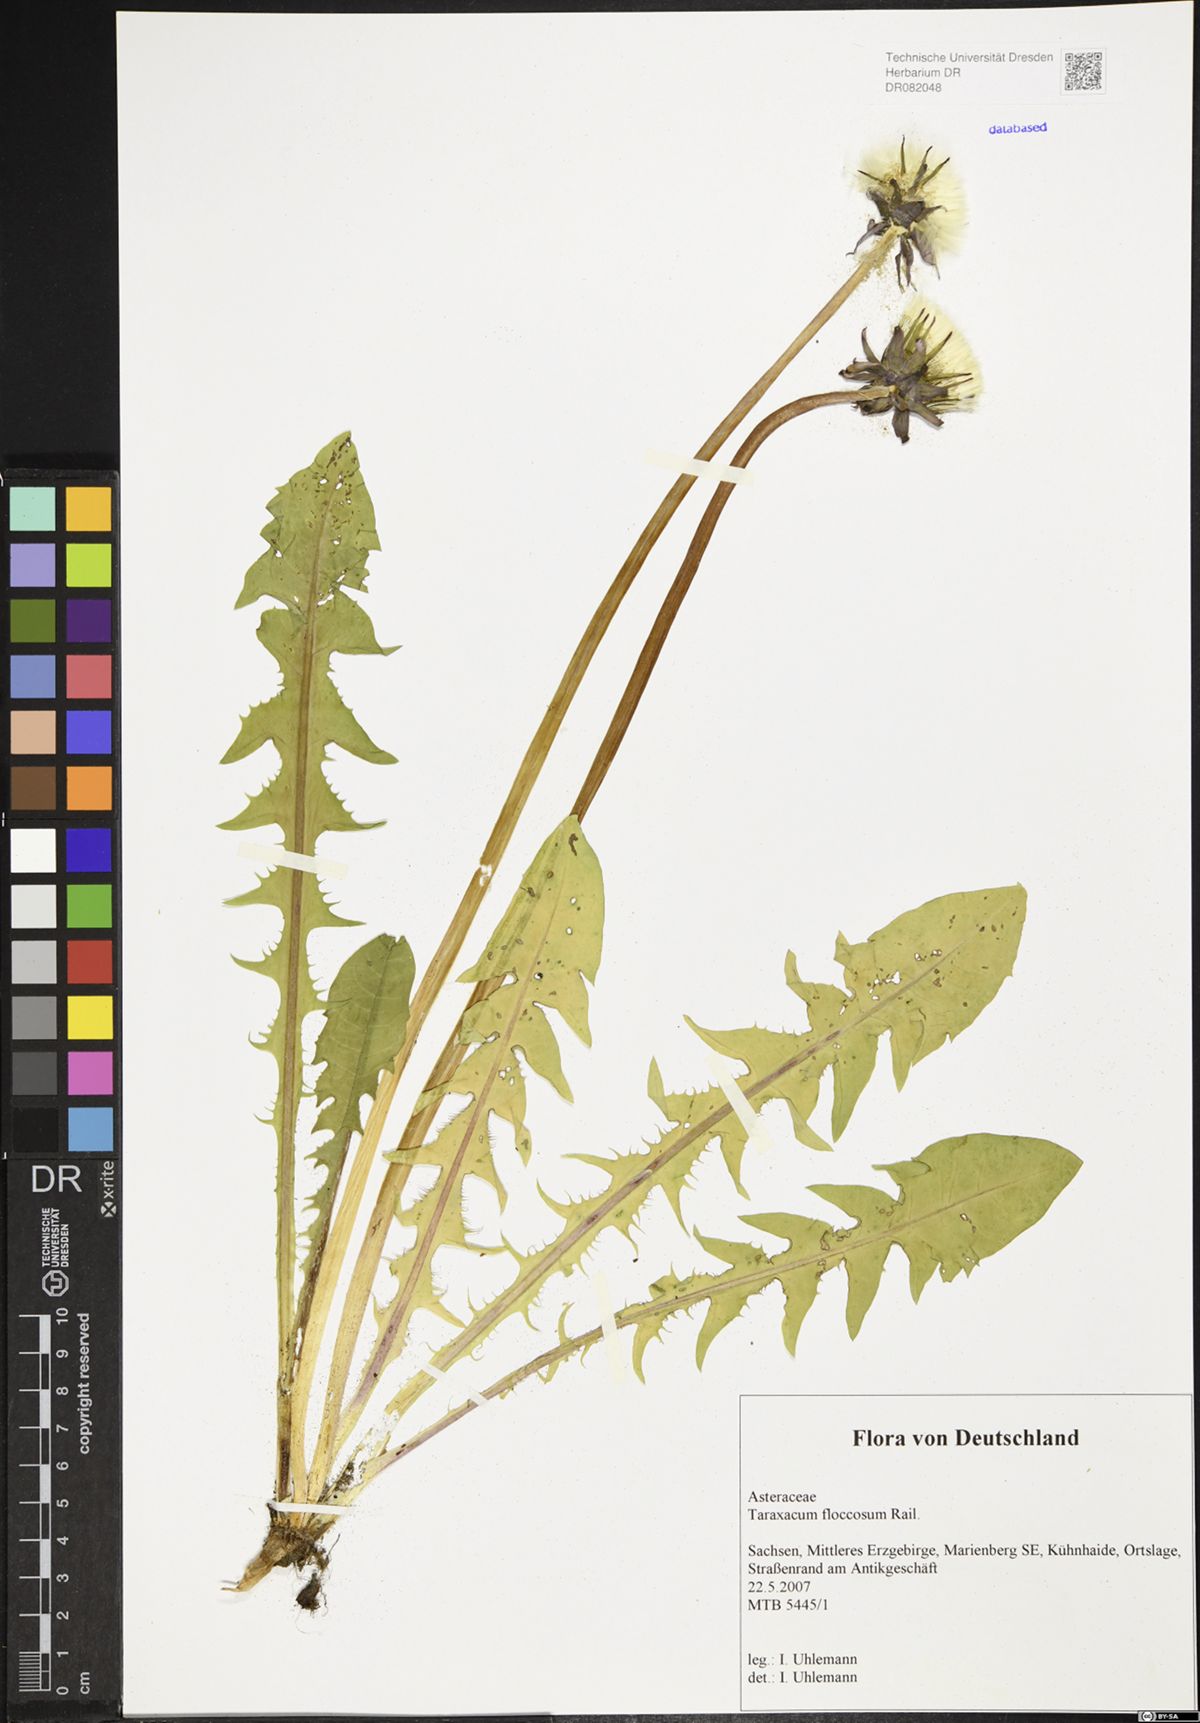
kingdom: Plantae
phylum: Tracheophyta
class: Magnoliopsida
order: Asterales
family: Asteraceae
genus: Taraxacum
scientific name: Taraxacum floccosum
